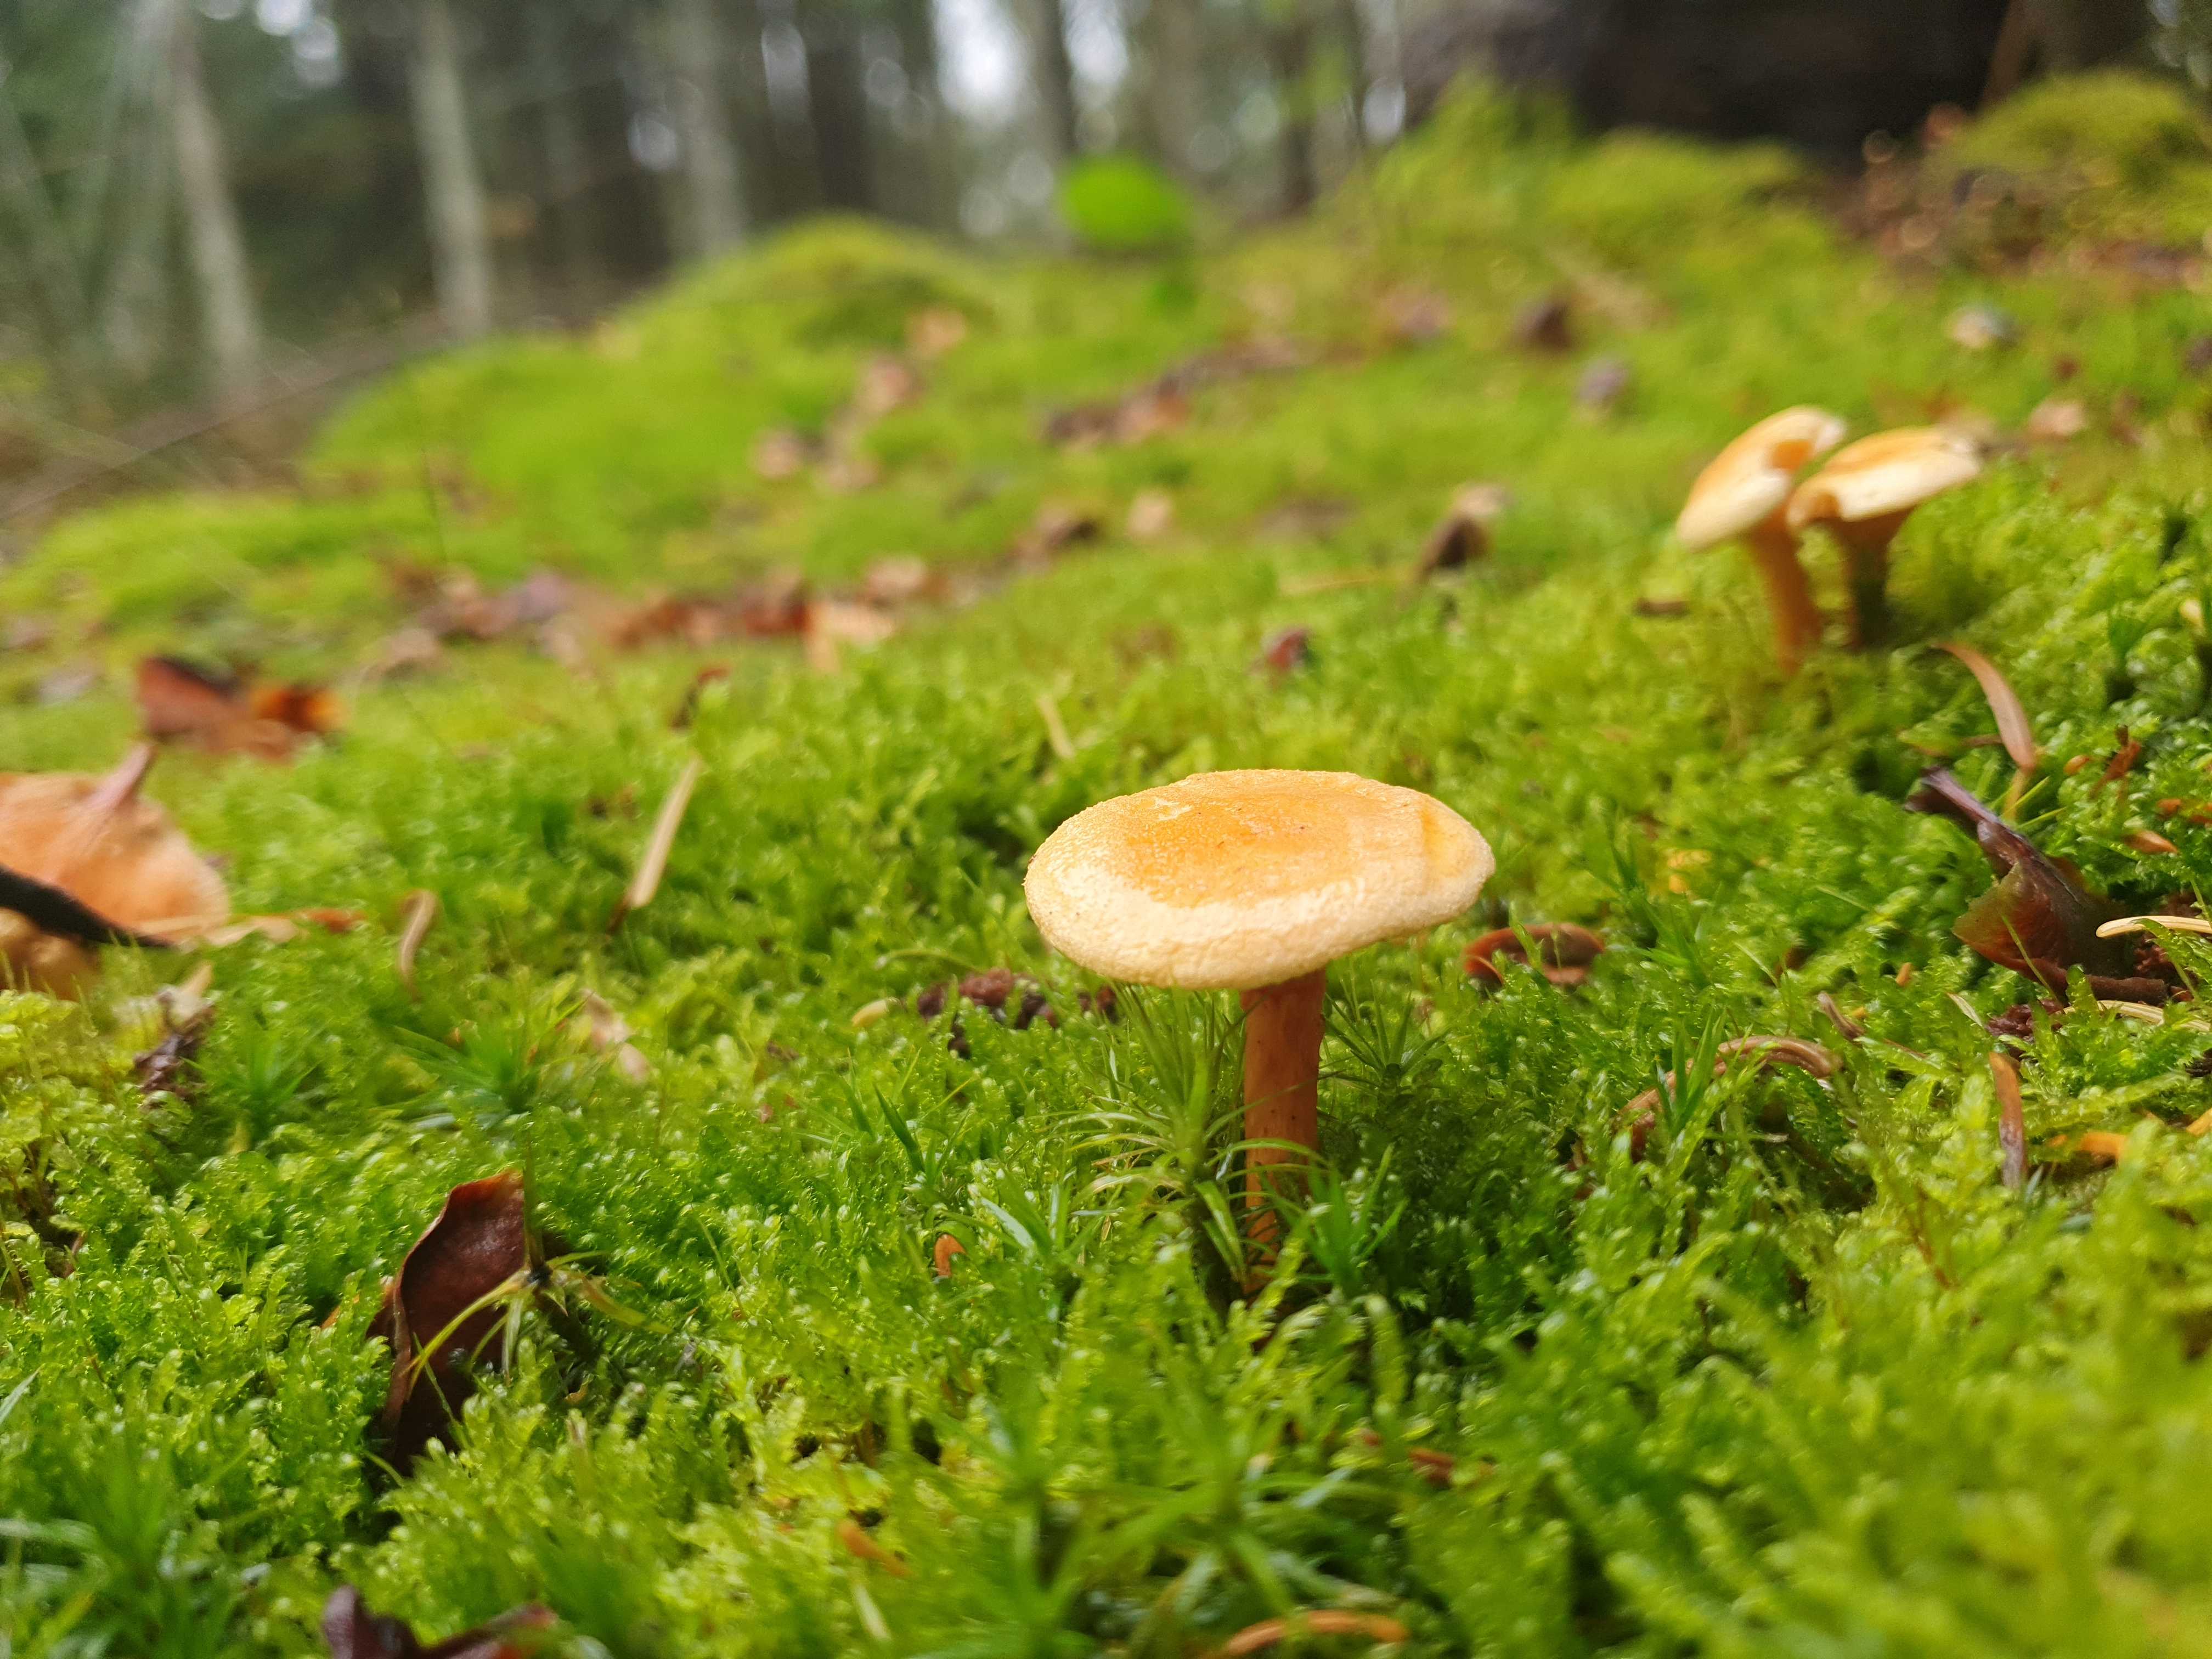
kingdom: Fungi
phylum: Basidiomycota
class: Agaricomycetes
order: Boletales
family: Hygrophoropsidaceae
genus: Hygrophoropsis
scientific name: Hygrophoropsis aurantiaca
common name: almindelig orangekantarel
